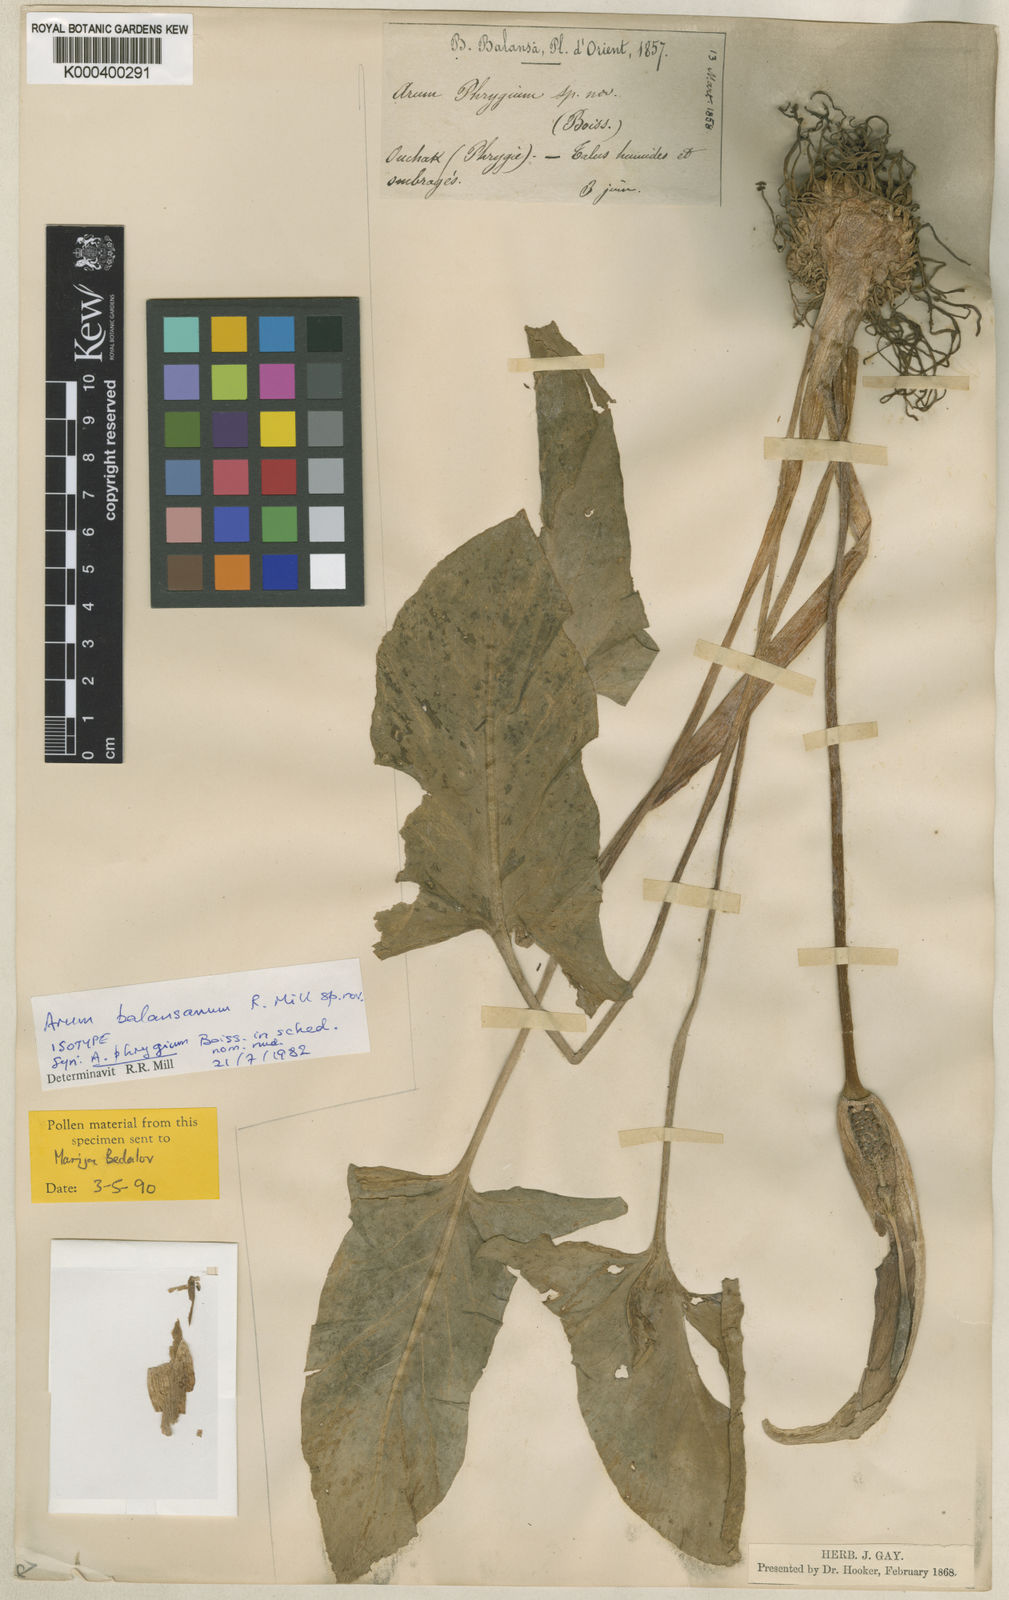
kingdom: Plantae
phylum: Tracheophyta
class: Liliopsida
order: Alismatales
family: Araceae
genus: Arum
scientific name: Arum orientale
